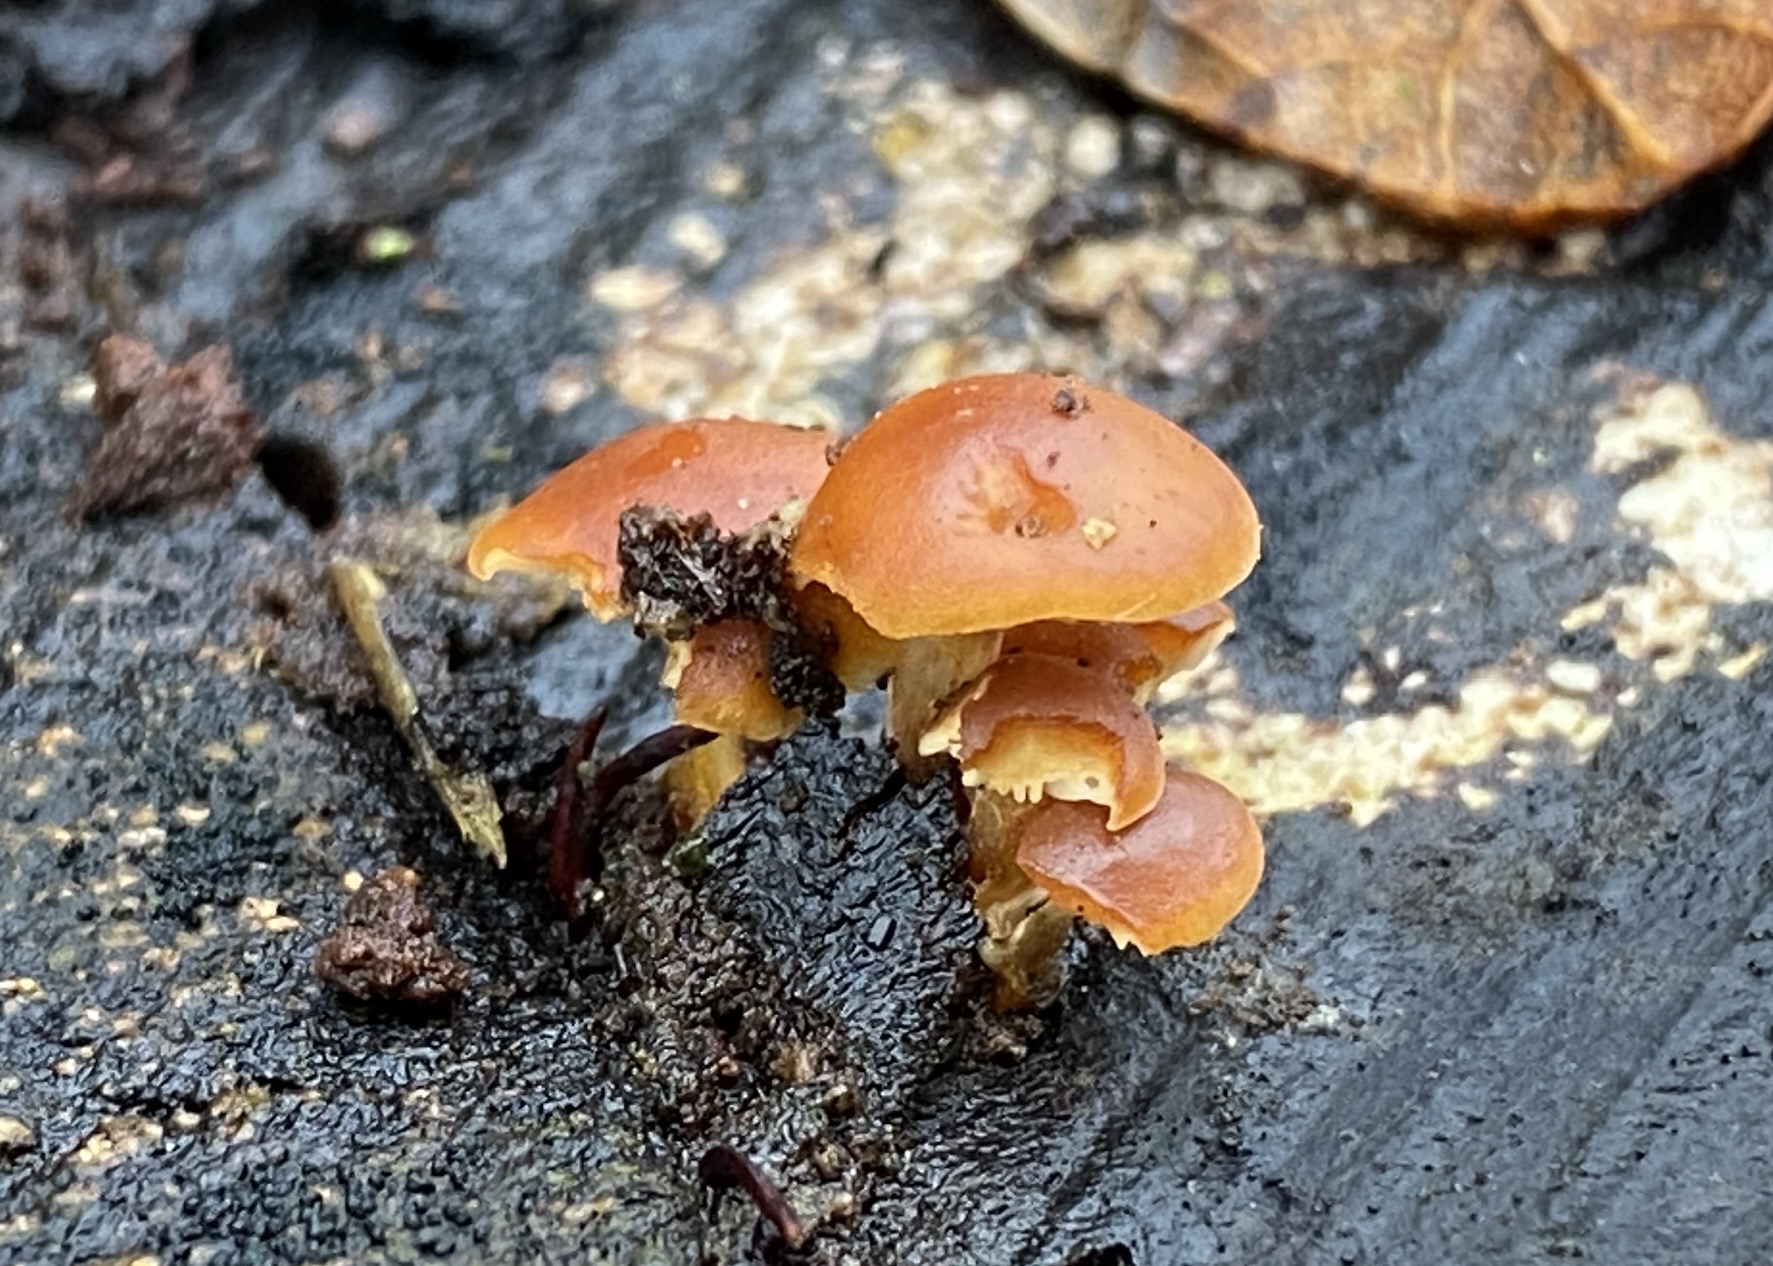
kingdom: Fungi
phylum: Basidiomycota
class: Agaricomycetes
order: Agaricales
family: Physalacriaceae
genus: Flammulina
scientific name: Flammulina
